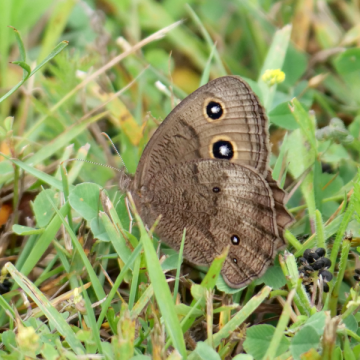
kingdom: Animalia
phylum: Arthropoda
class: Insecta
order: Lepidoptera
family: Nymphalidae
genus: Cercyonis
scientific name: Cercyonis pegala
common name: Common Wood-Nymph
